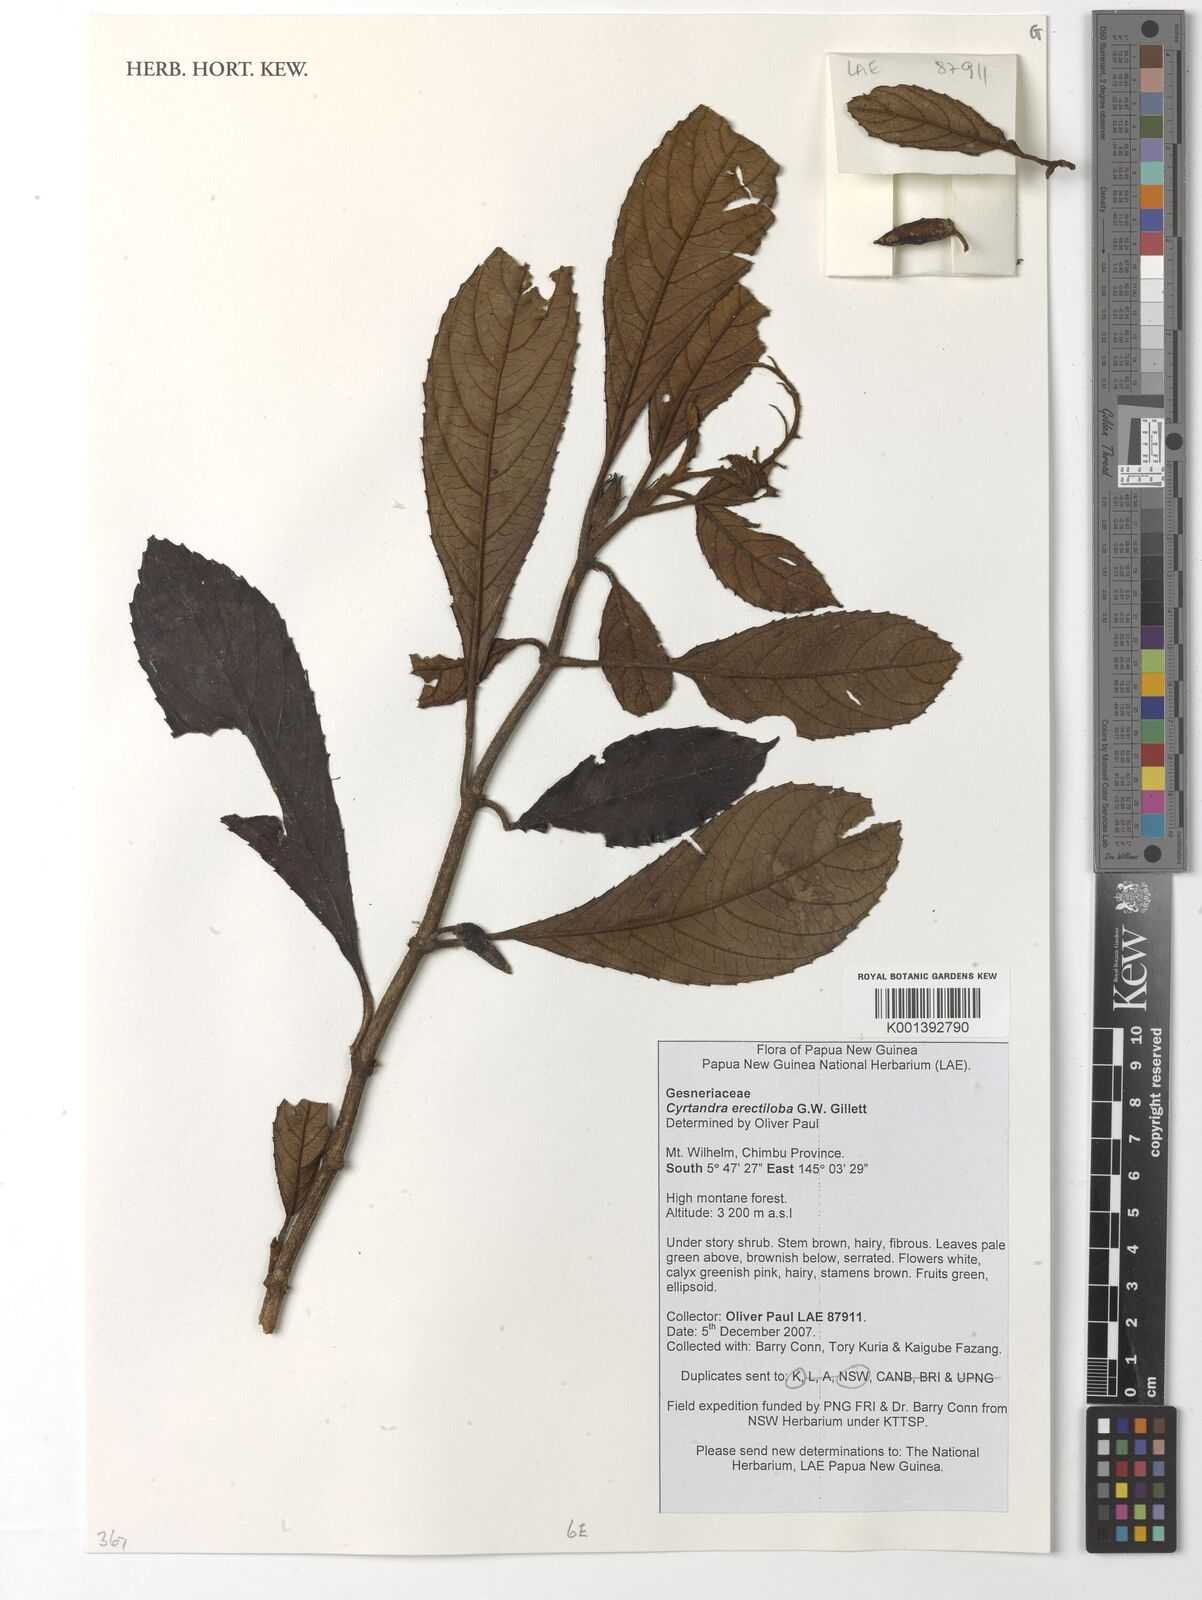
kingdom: Plantae
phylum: Tracheophyta
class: Magnoliopsida
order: Lamiales
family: Gesneriaceae
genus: Cyrtandra
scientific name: Cyrtandra erectiloba
